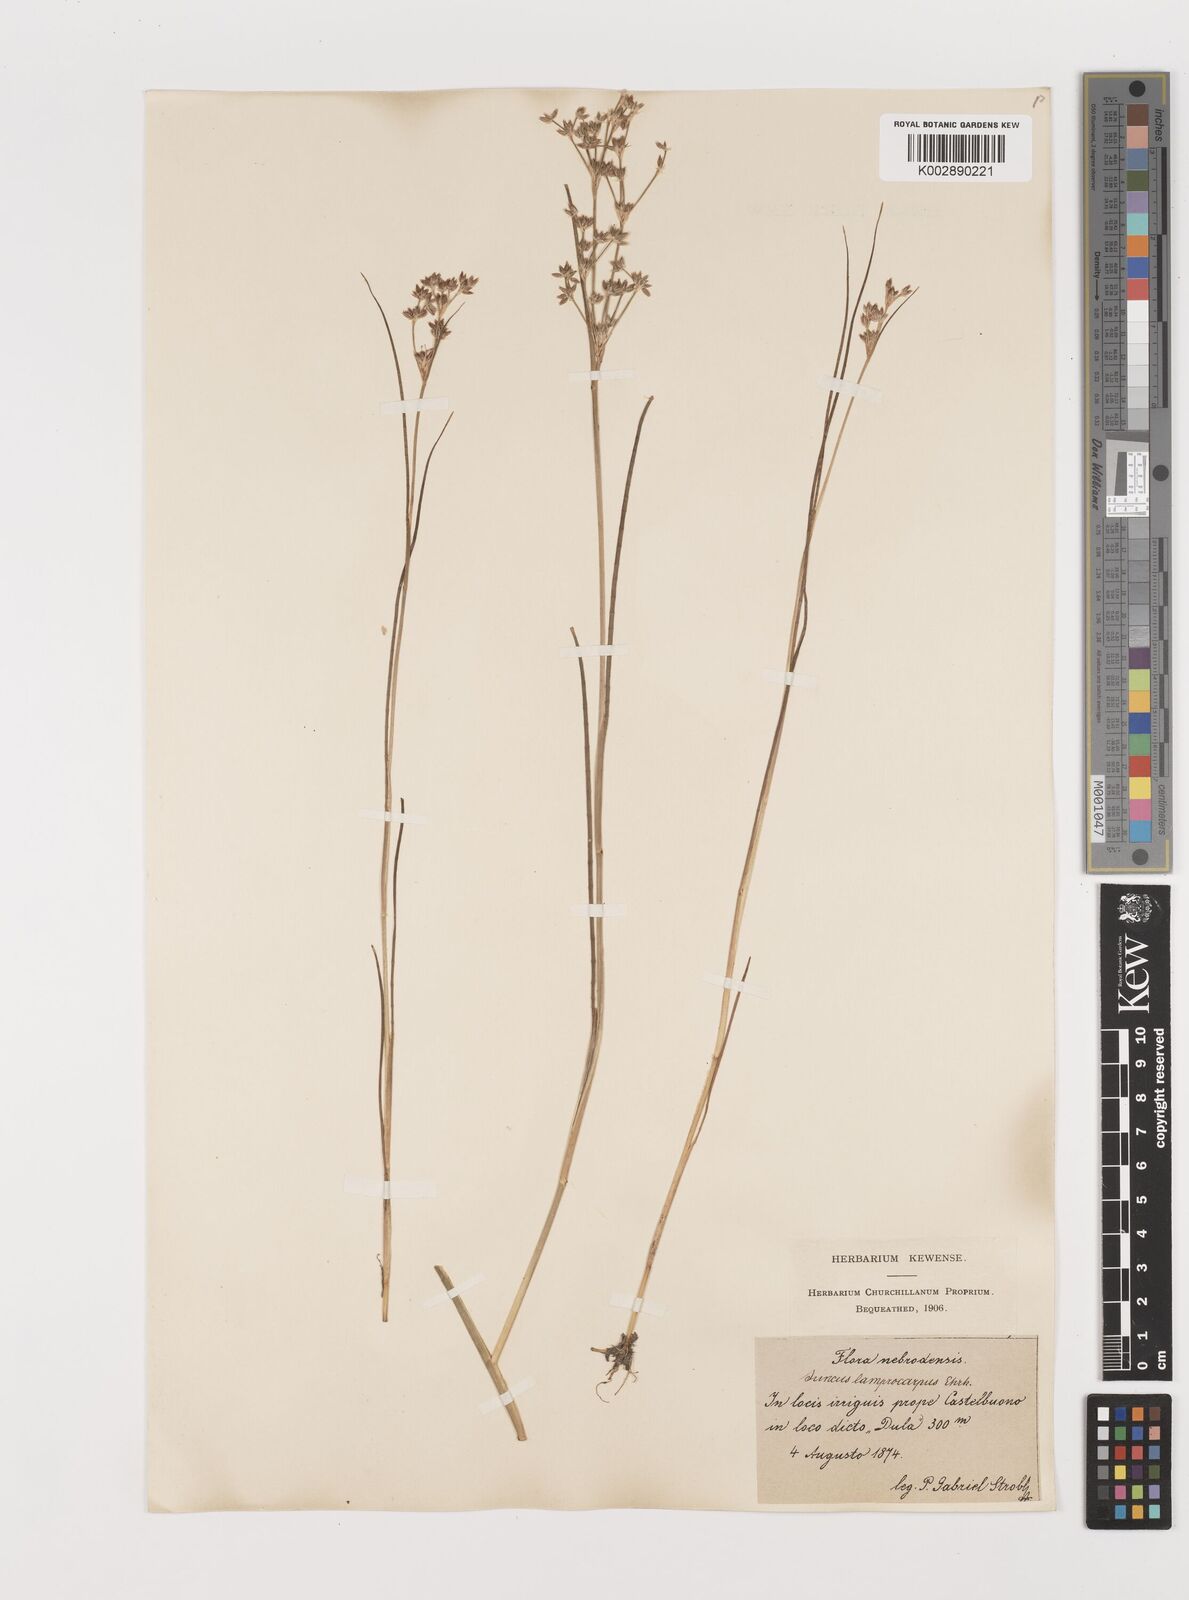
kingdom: Plantae
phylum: Tracheophyta
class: Liliopsida
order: Poales
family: Juncaceae
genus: Juncus
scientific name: Juncus articulatus
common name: Jointed rush
